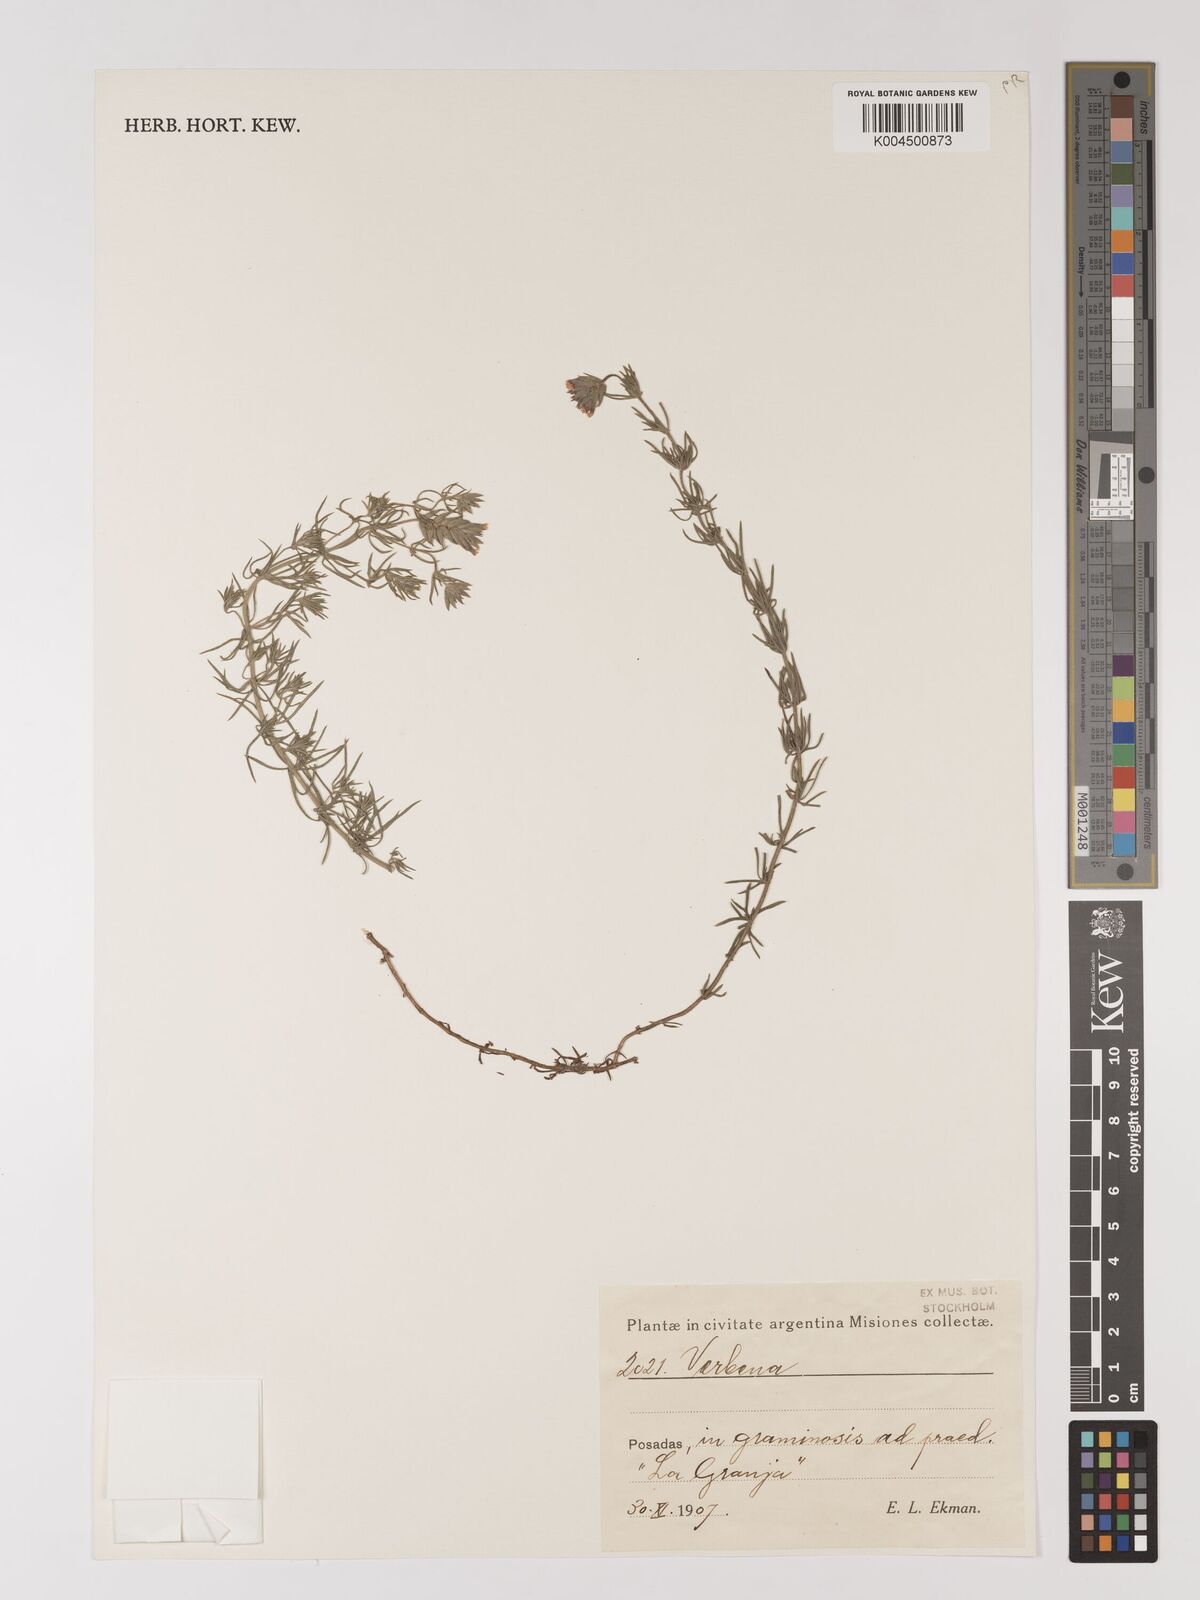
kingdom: Plantae
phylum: Tracheophyta
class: Magnoliopsida
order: Lamiales
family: Verbenaceae
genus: Verbena
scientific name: Verbena
